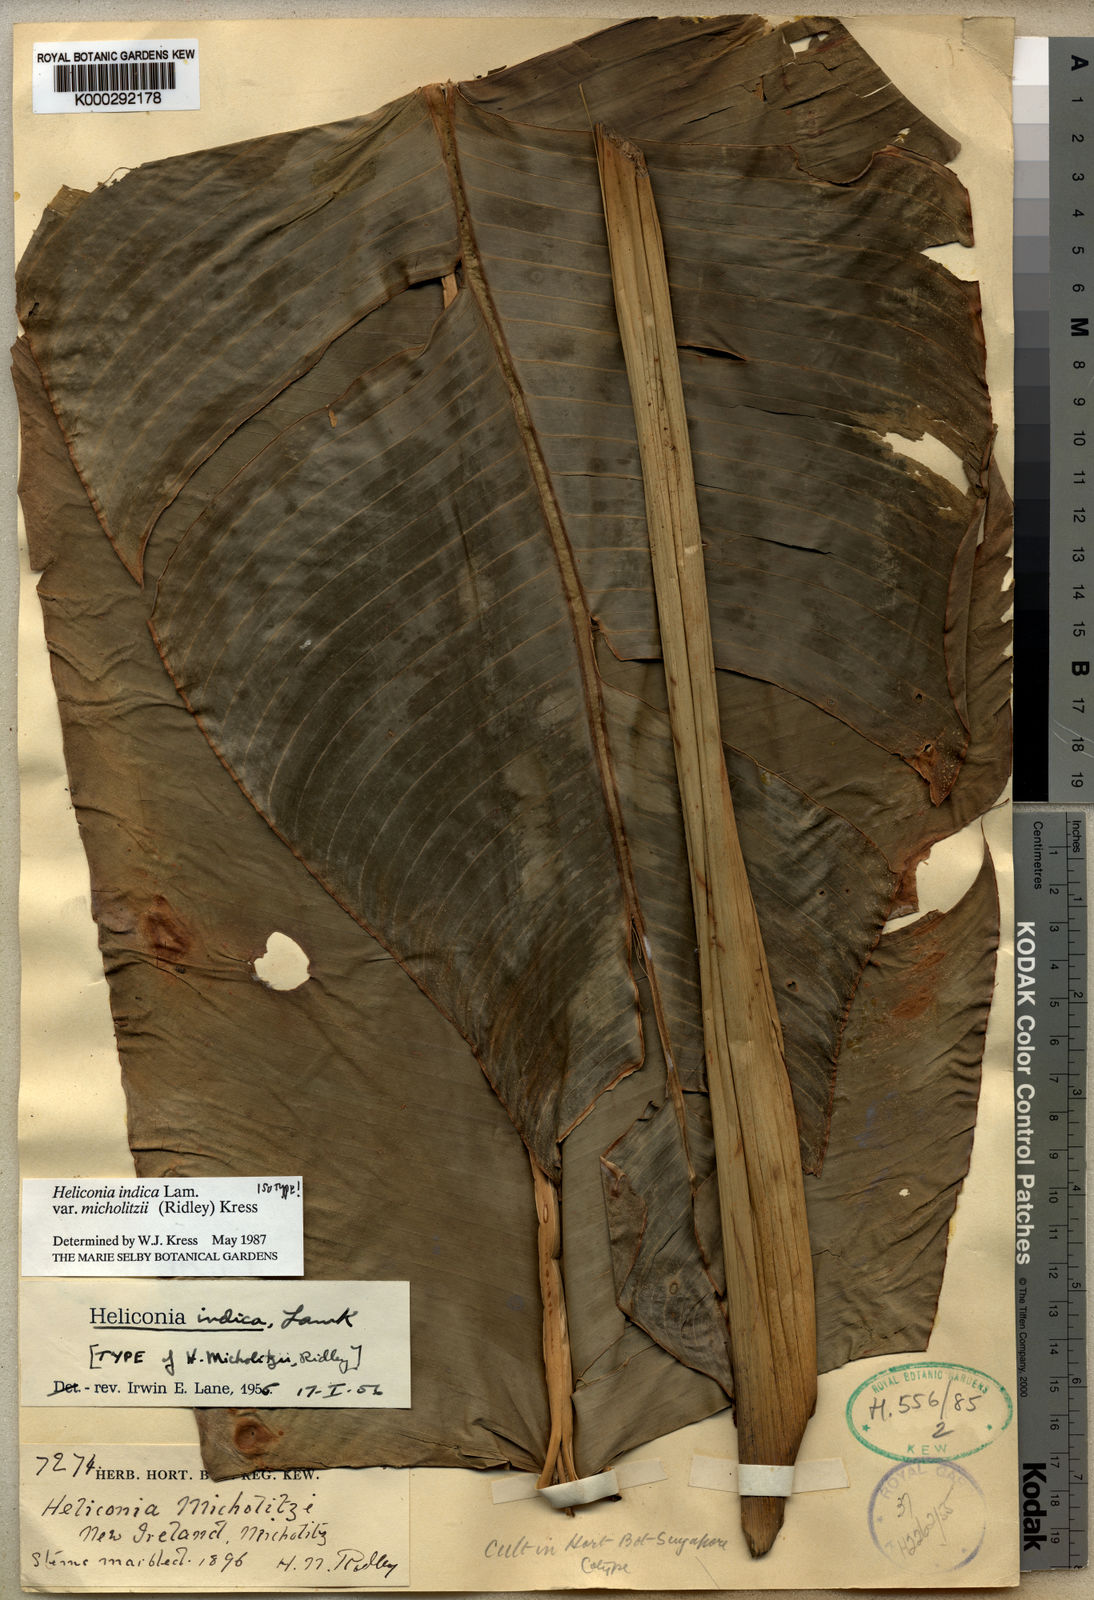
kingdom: Plantae
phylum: Tracheophyta
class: Liliopsida
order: Zingiberales
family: Heliconiaceae
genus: Heliconia
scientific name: Heliconia indica
